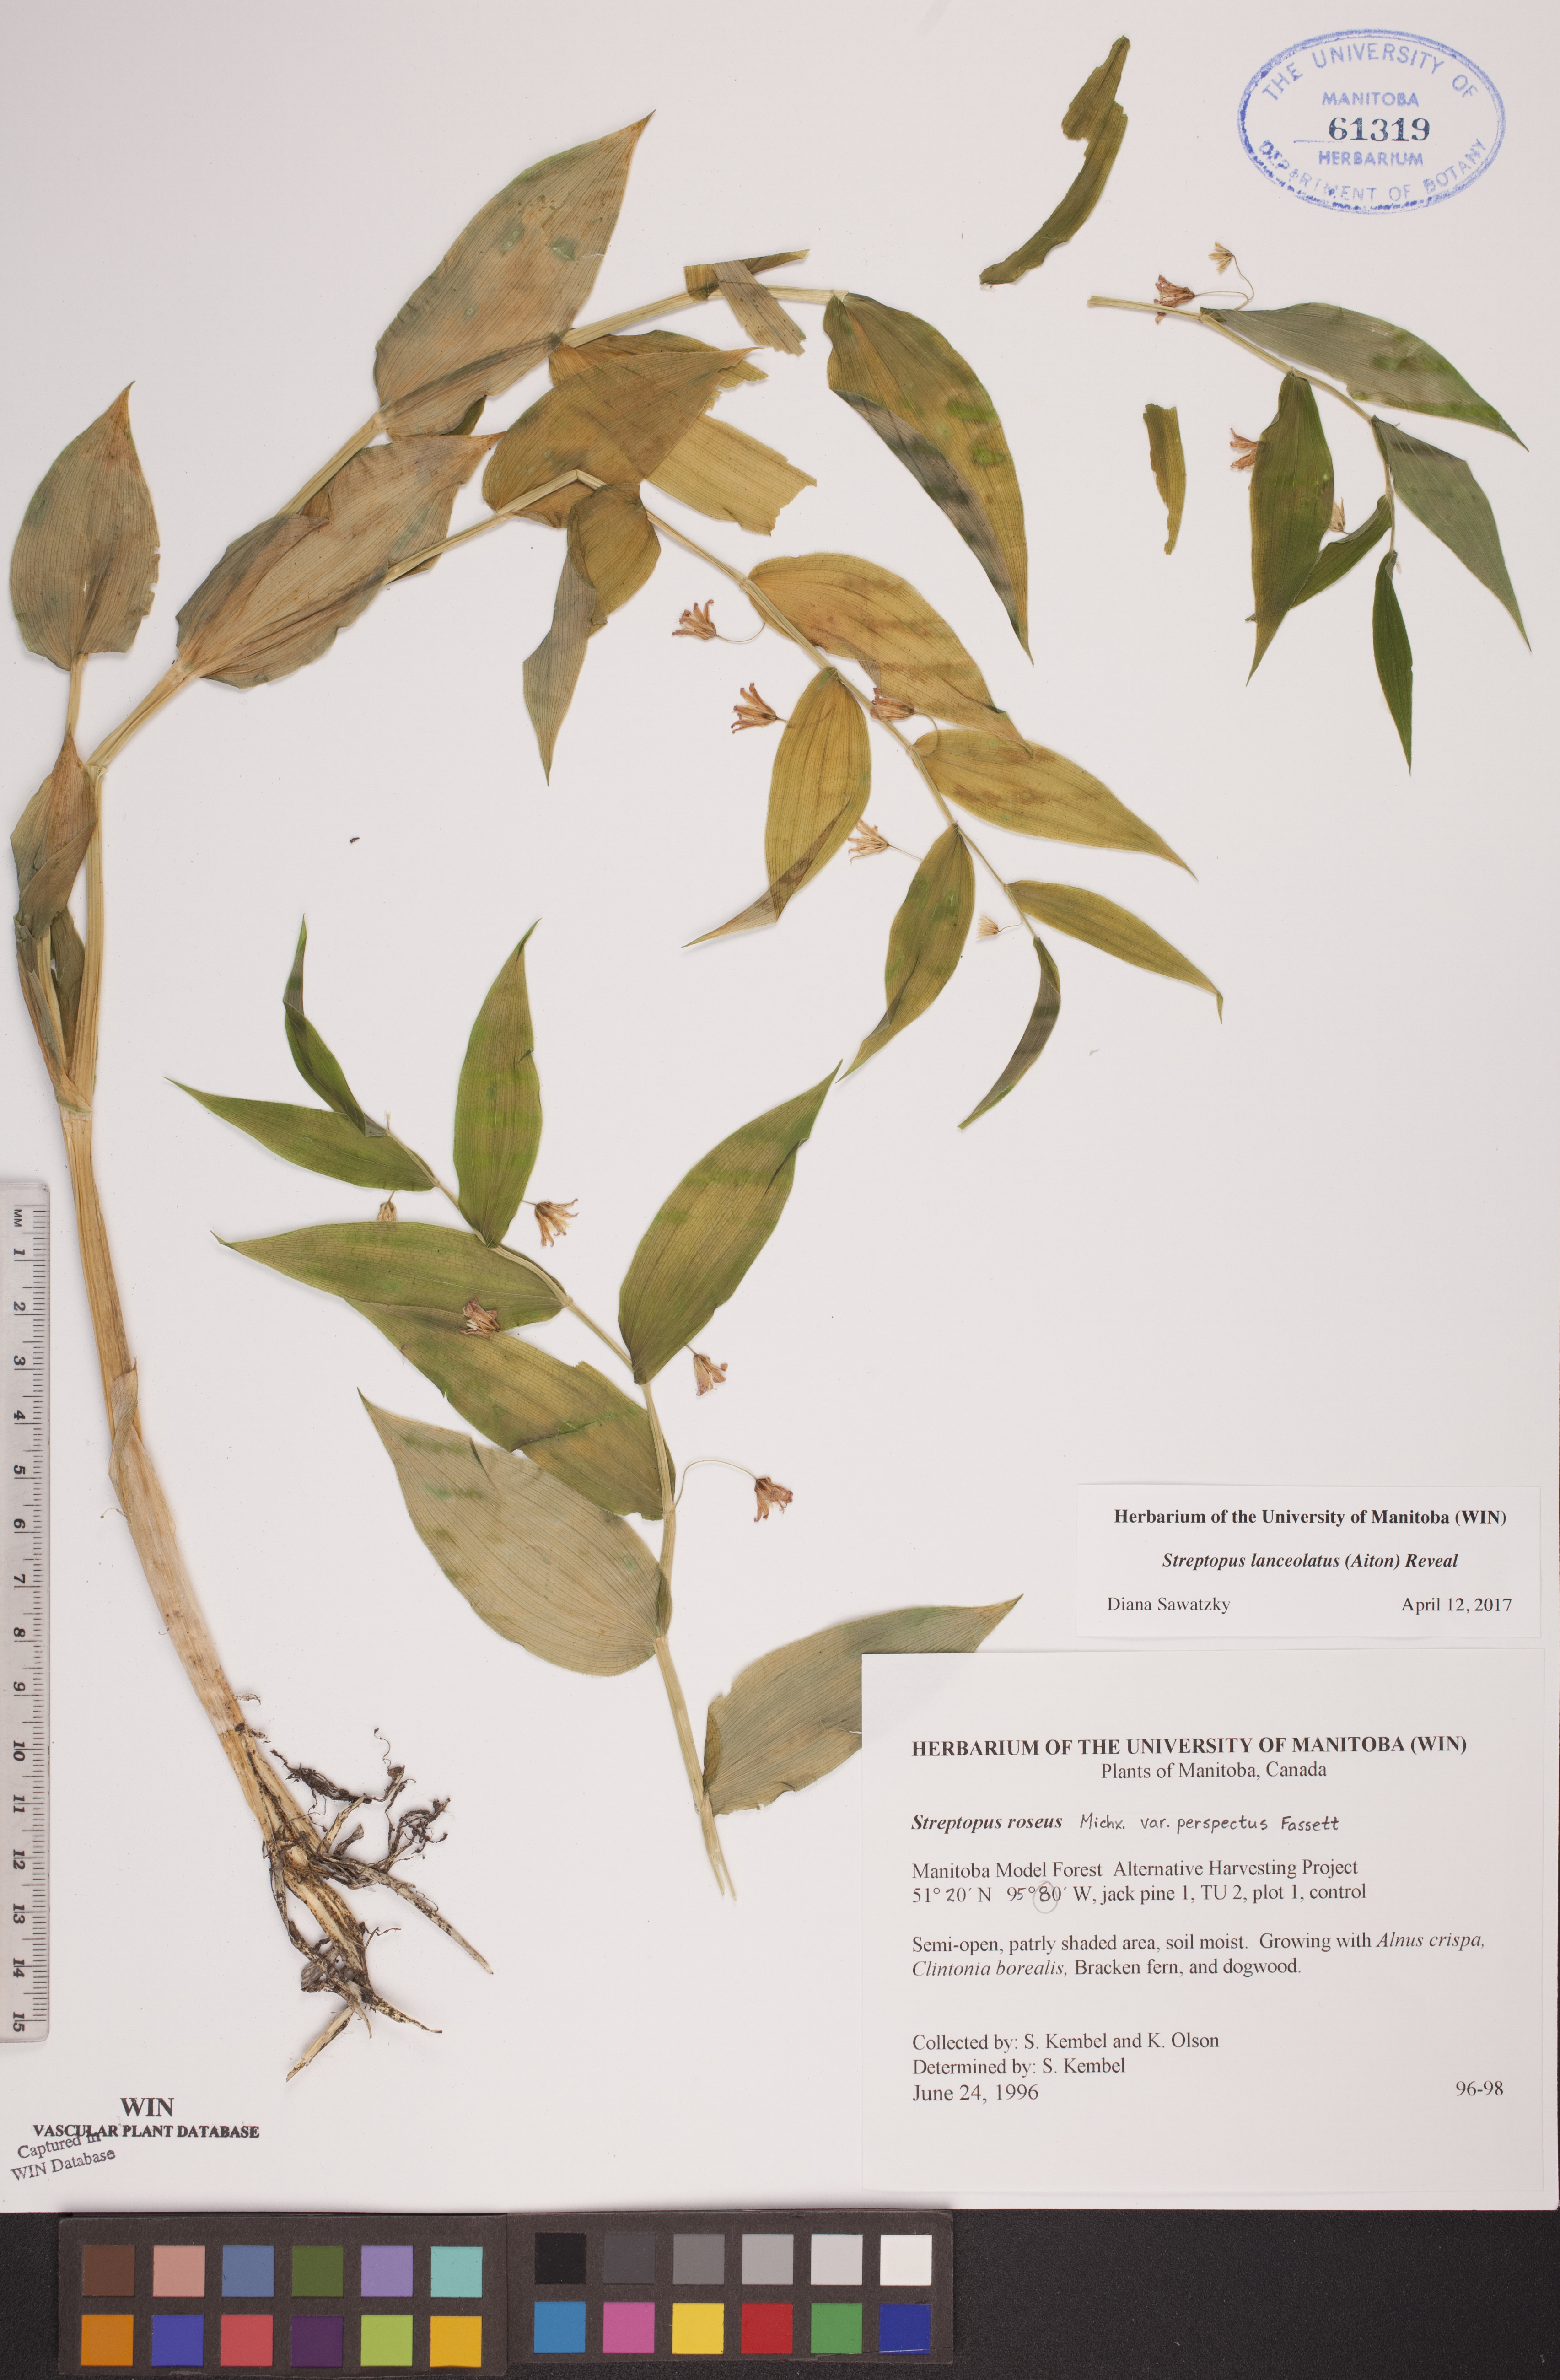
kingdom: Plantae
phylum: Tracheophyta
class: Liliopsida
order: Liliales
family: Liliaceae
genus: Streptopus
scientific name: Streptopus lanceolatus
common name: Rose mandarin
